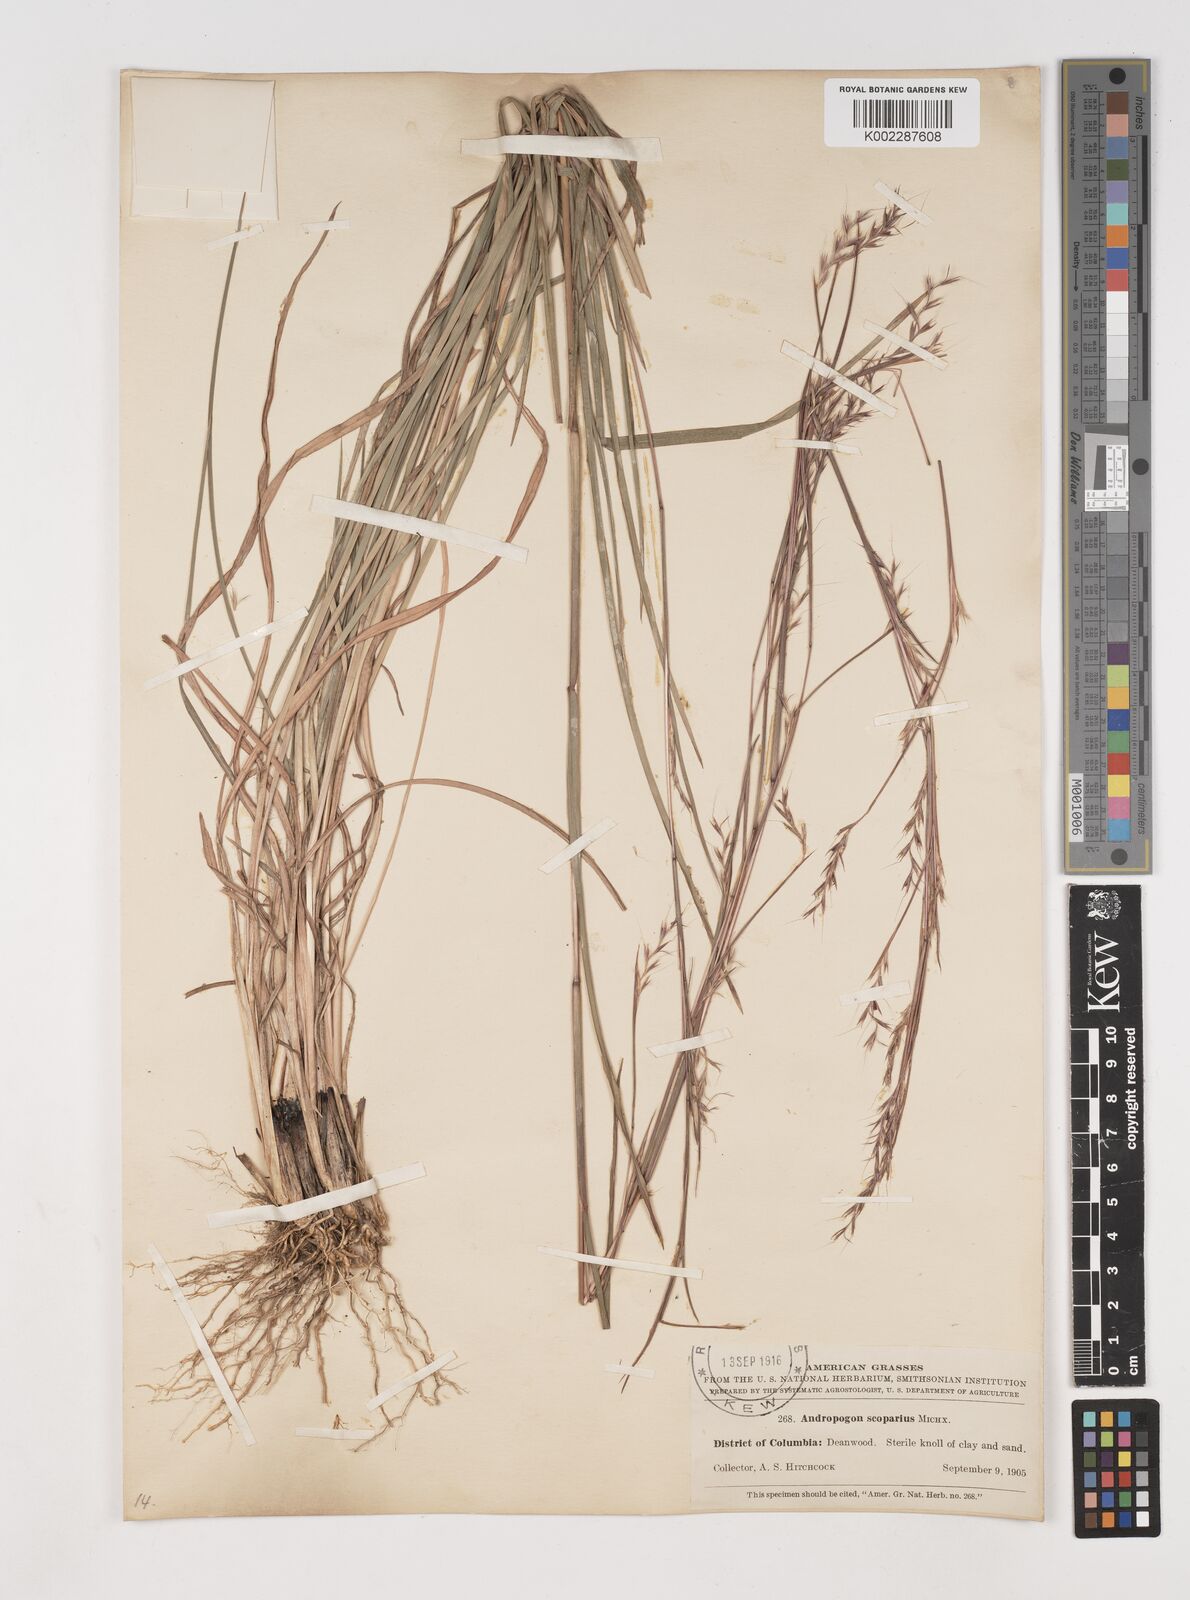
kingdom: Plantae
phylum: Tracheophyta
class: Liliopsida
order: Poales
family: Poaceae
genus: Schizachyrium
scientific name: Schizachyrium scoparium
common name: Little bluestem
